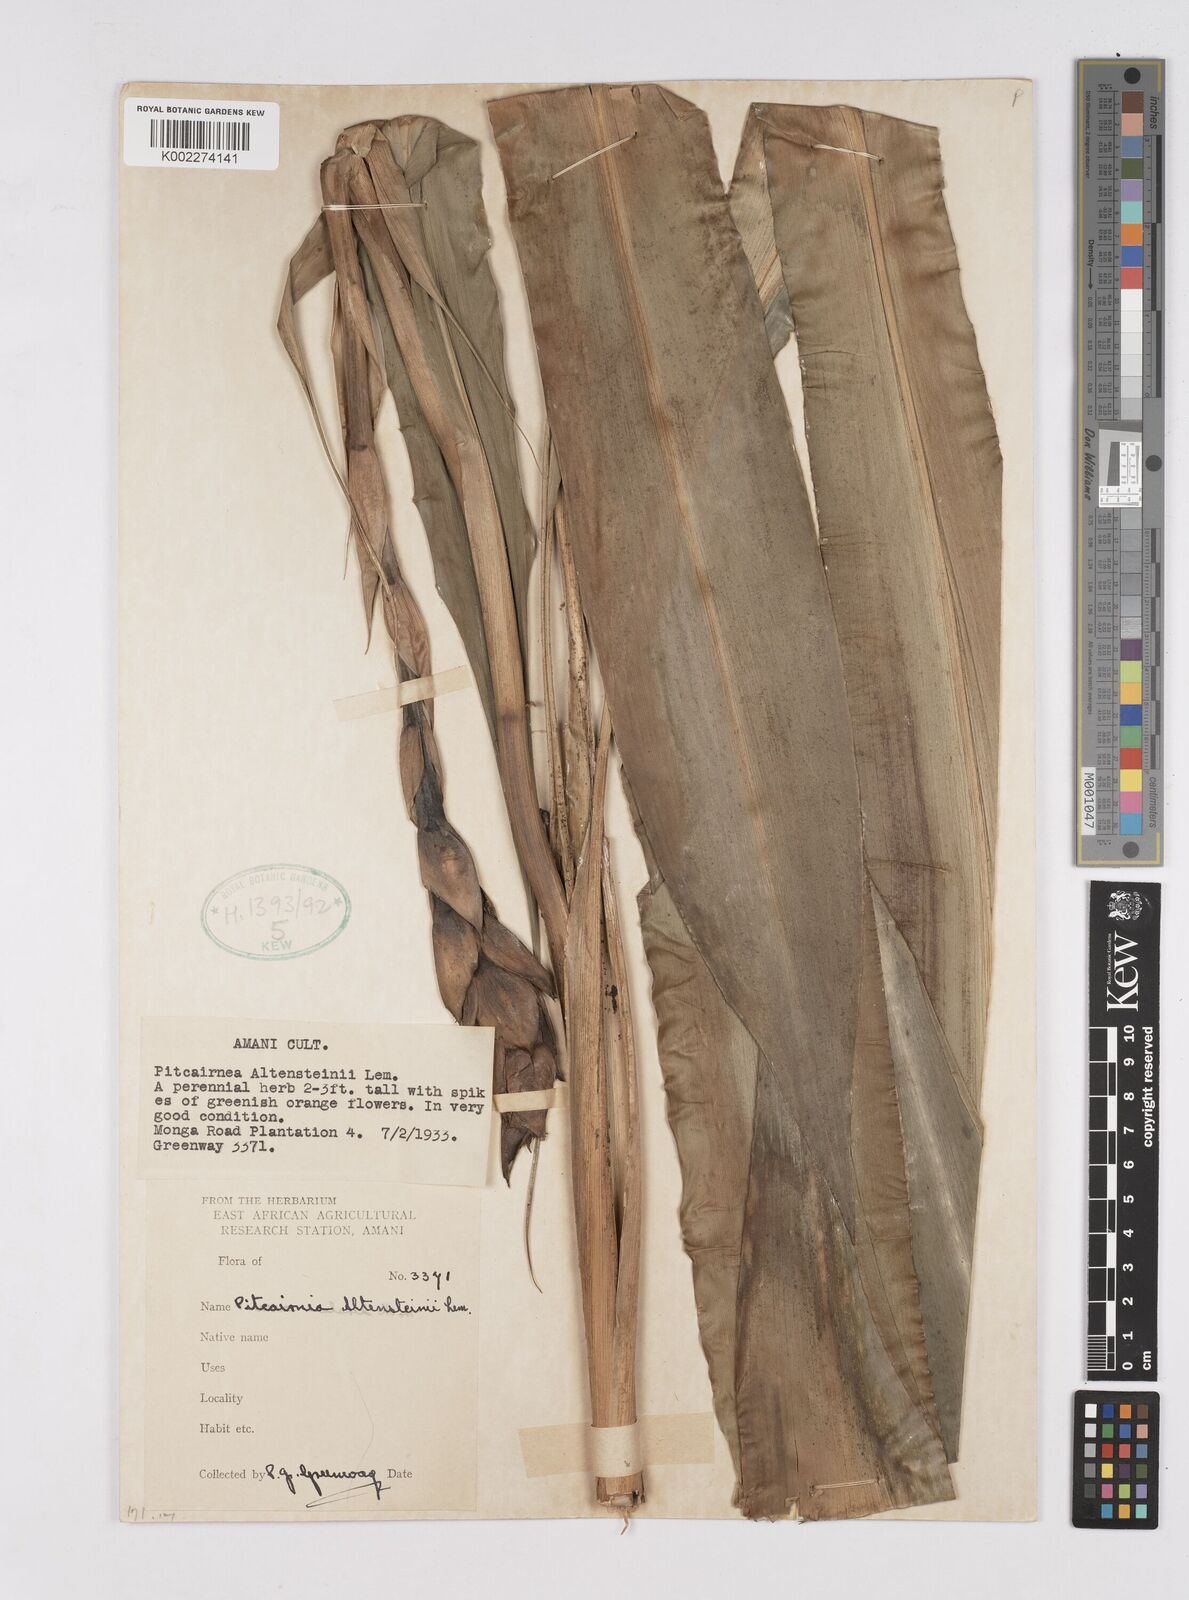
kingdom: Plantae
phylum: Tracheophyta
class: Liliopsida
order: Poales
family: Bromeliaceae
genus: Pitcairnia
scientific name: Pitcairnia altensteinii
